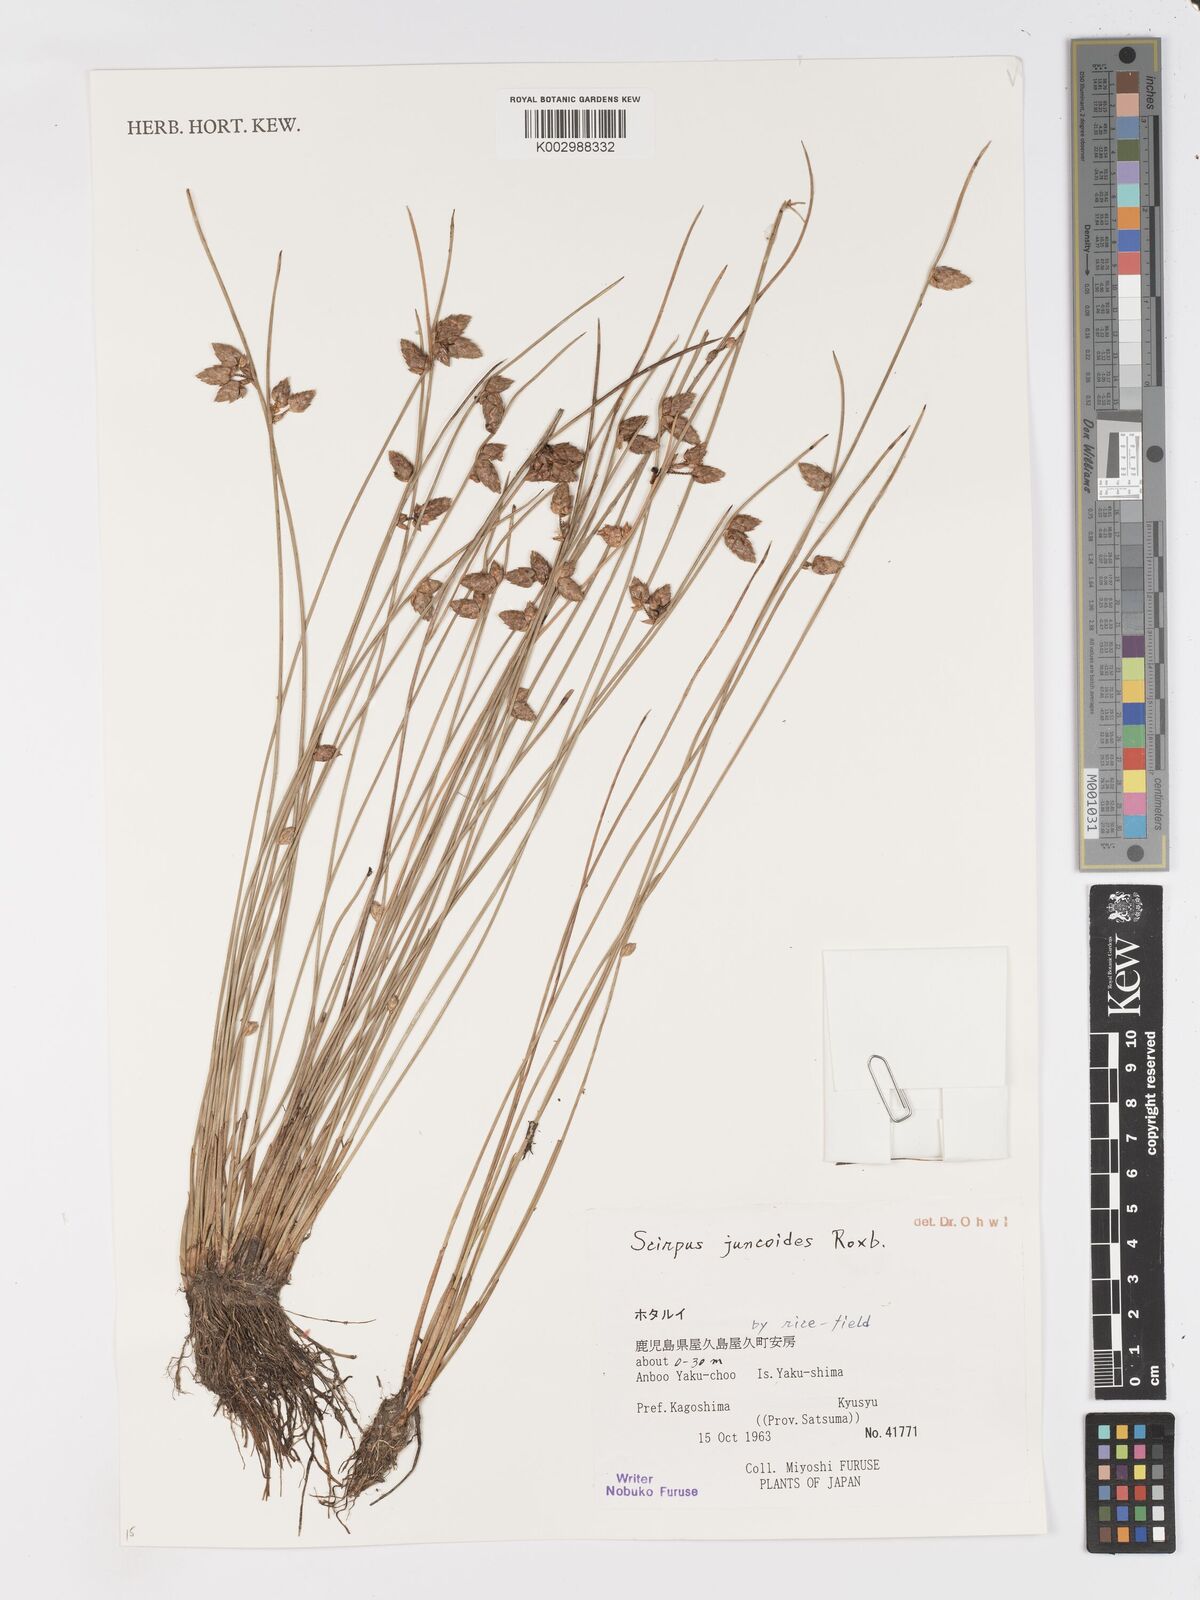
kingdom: Plantae
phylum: Tracheophyta
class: Liliopsida
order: Poales
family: Cyperaceae
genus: Schoenoplectiella
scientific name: Schoenoplectiella juncoides
